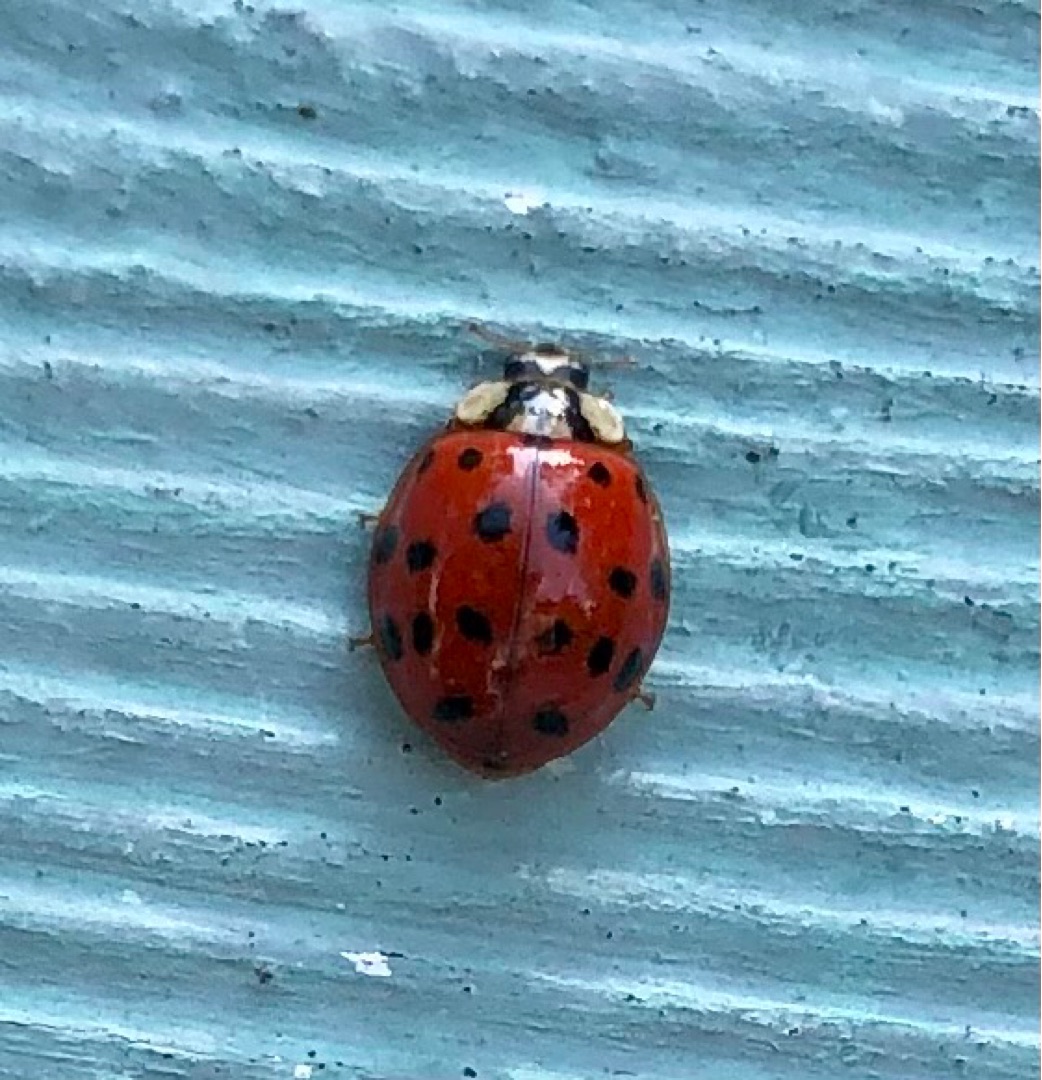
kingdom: Animalia
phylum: Arthropoda
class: Insecta
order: Coleoptera
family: Coccinellidae
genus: Harmonia
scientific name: Harmonia axyridis
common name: Harlekinmariehøne
